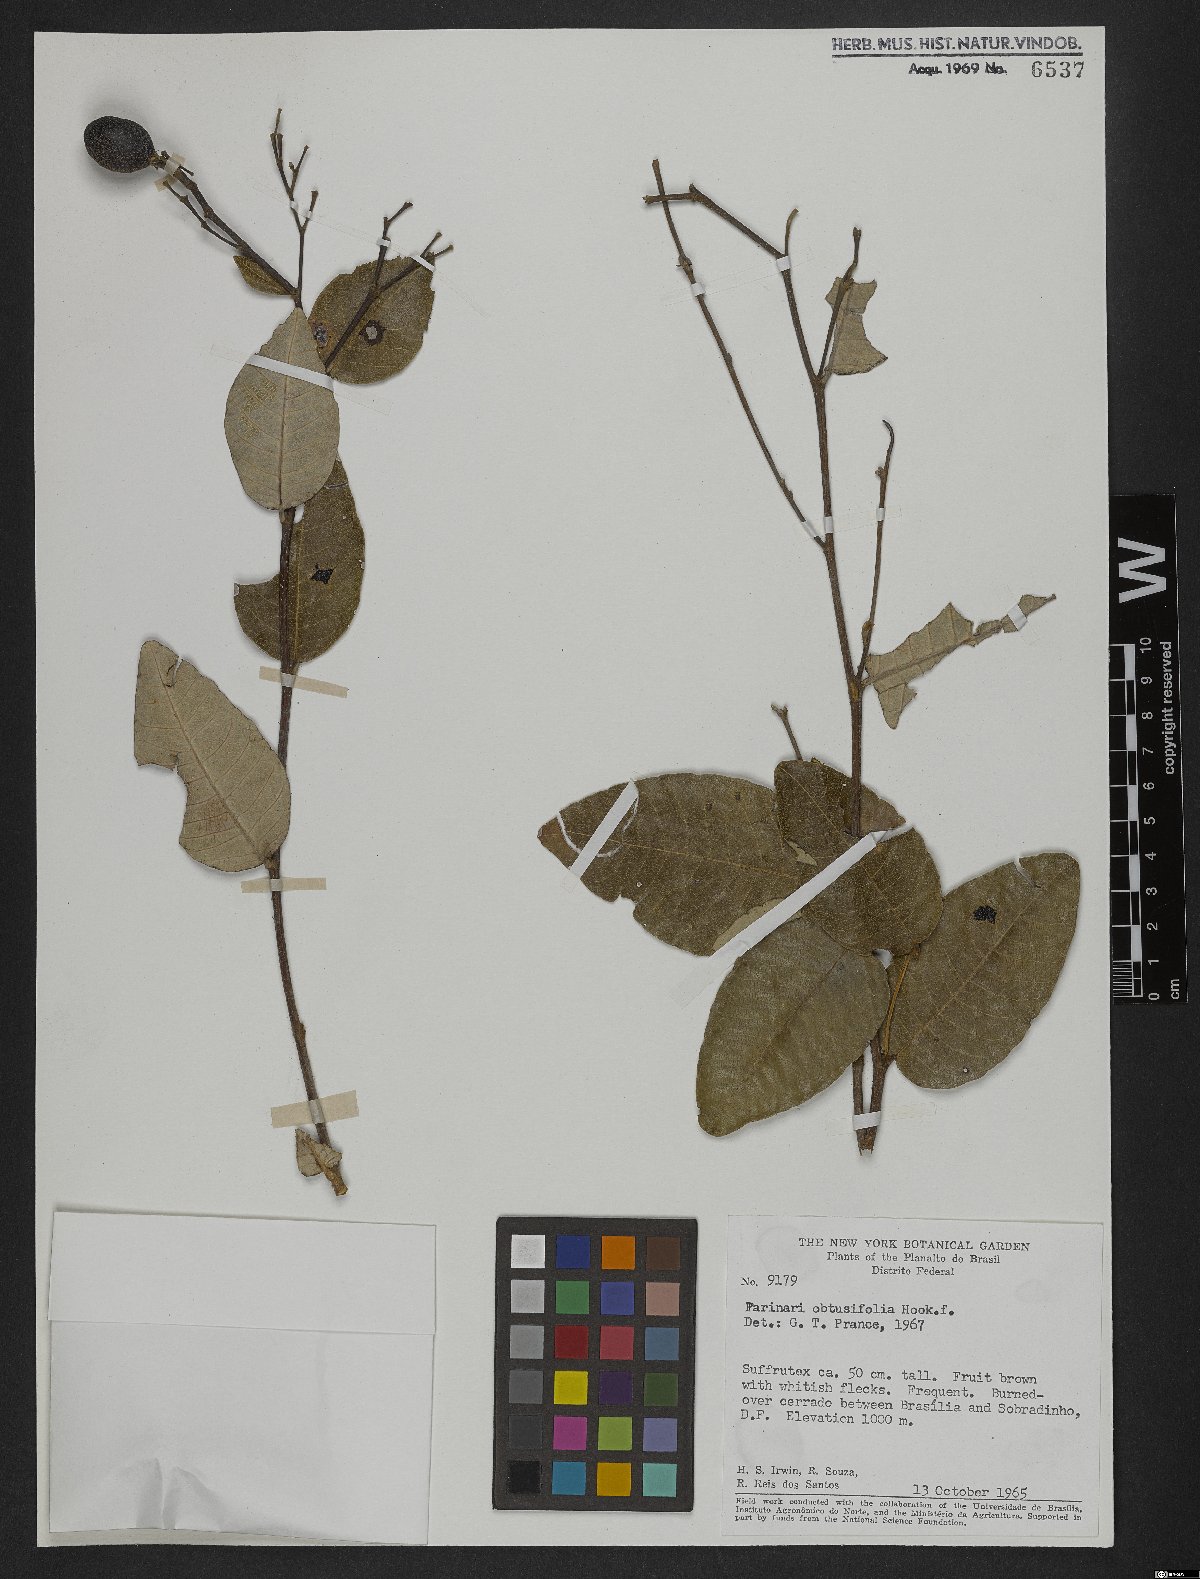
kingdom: Plantae
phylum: Tracheophyta
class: Magnoliopsida
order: Malpighiales
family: Chrysobalanaceae
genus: Parinari
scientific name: Parinari obtusifolium
